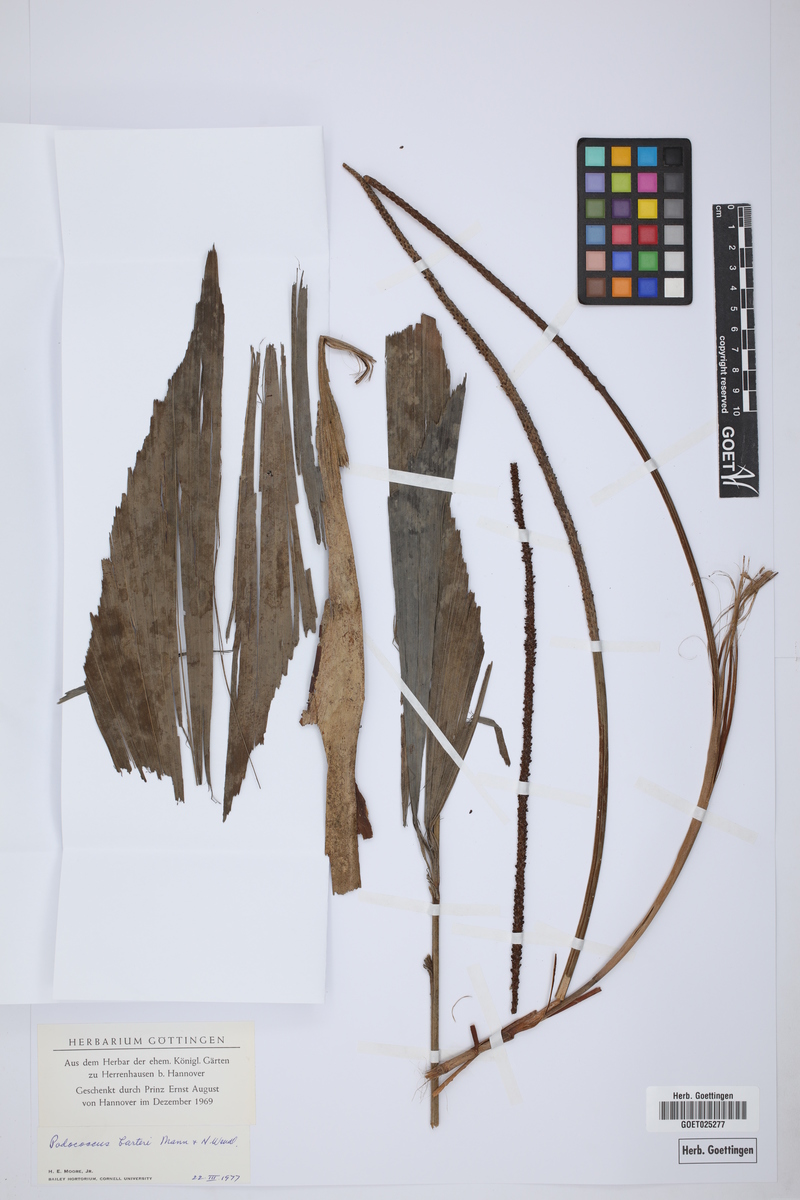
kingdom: Plantae
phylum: Tracheophyta
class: Liliopsida
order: Arecales
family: Arecaceae
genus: Podococcus
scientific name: Podococcus barteri
